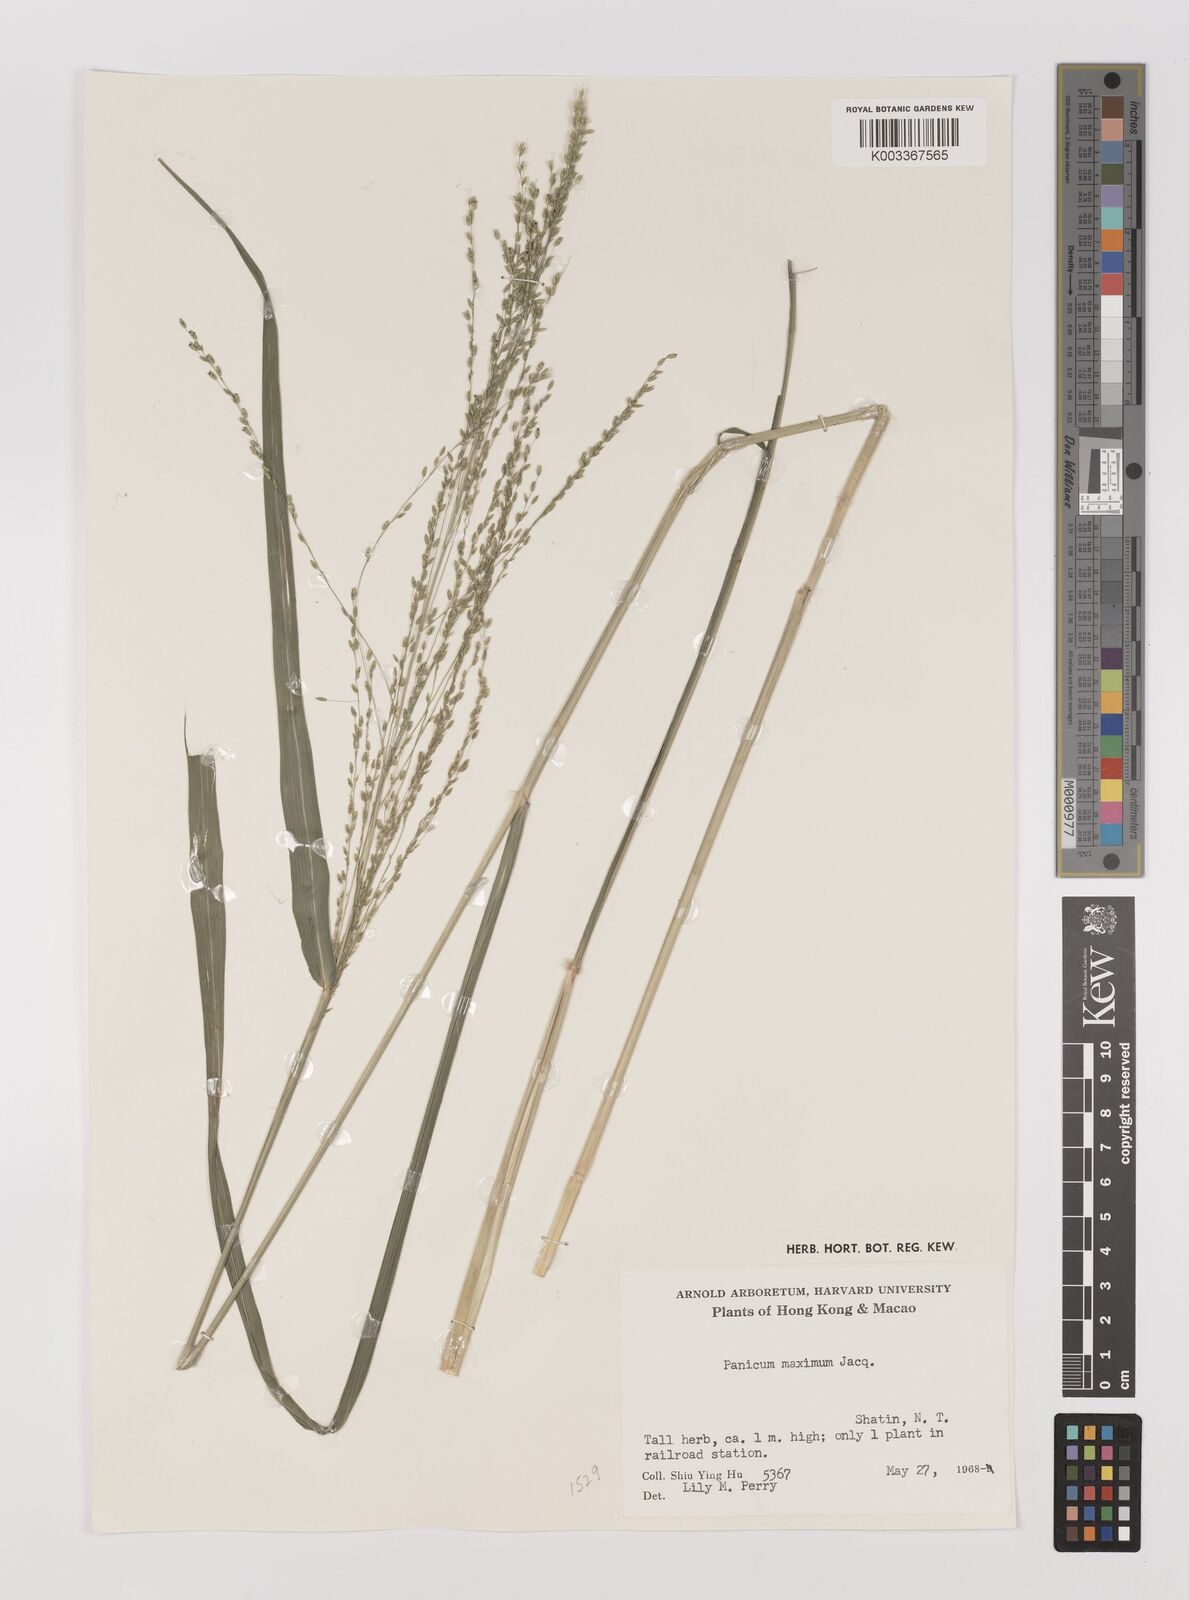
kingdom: Plantae
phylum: Tracheophyta
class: Liliopsida
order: Poales
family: Poaceae
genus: Megathyrsus
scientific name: Megathyrsus maximus
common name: Guineagrass
